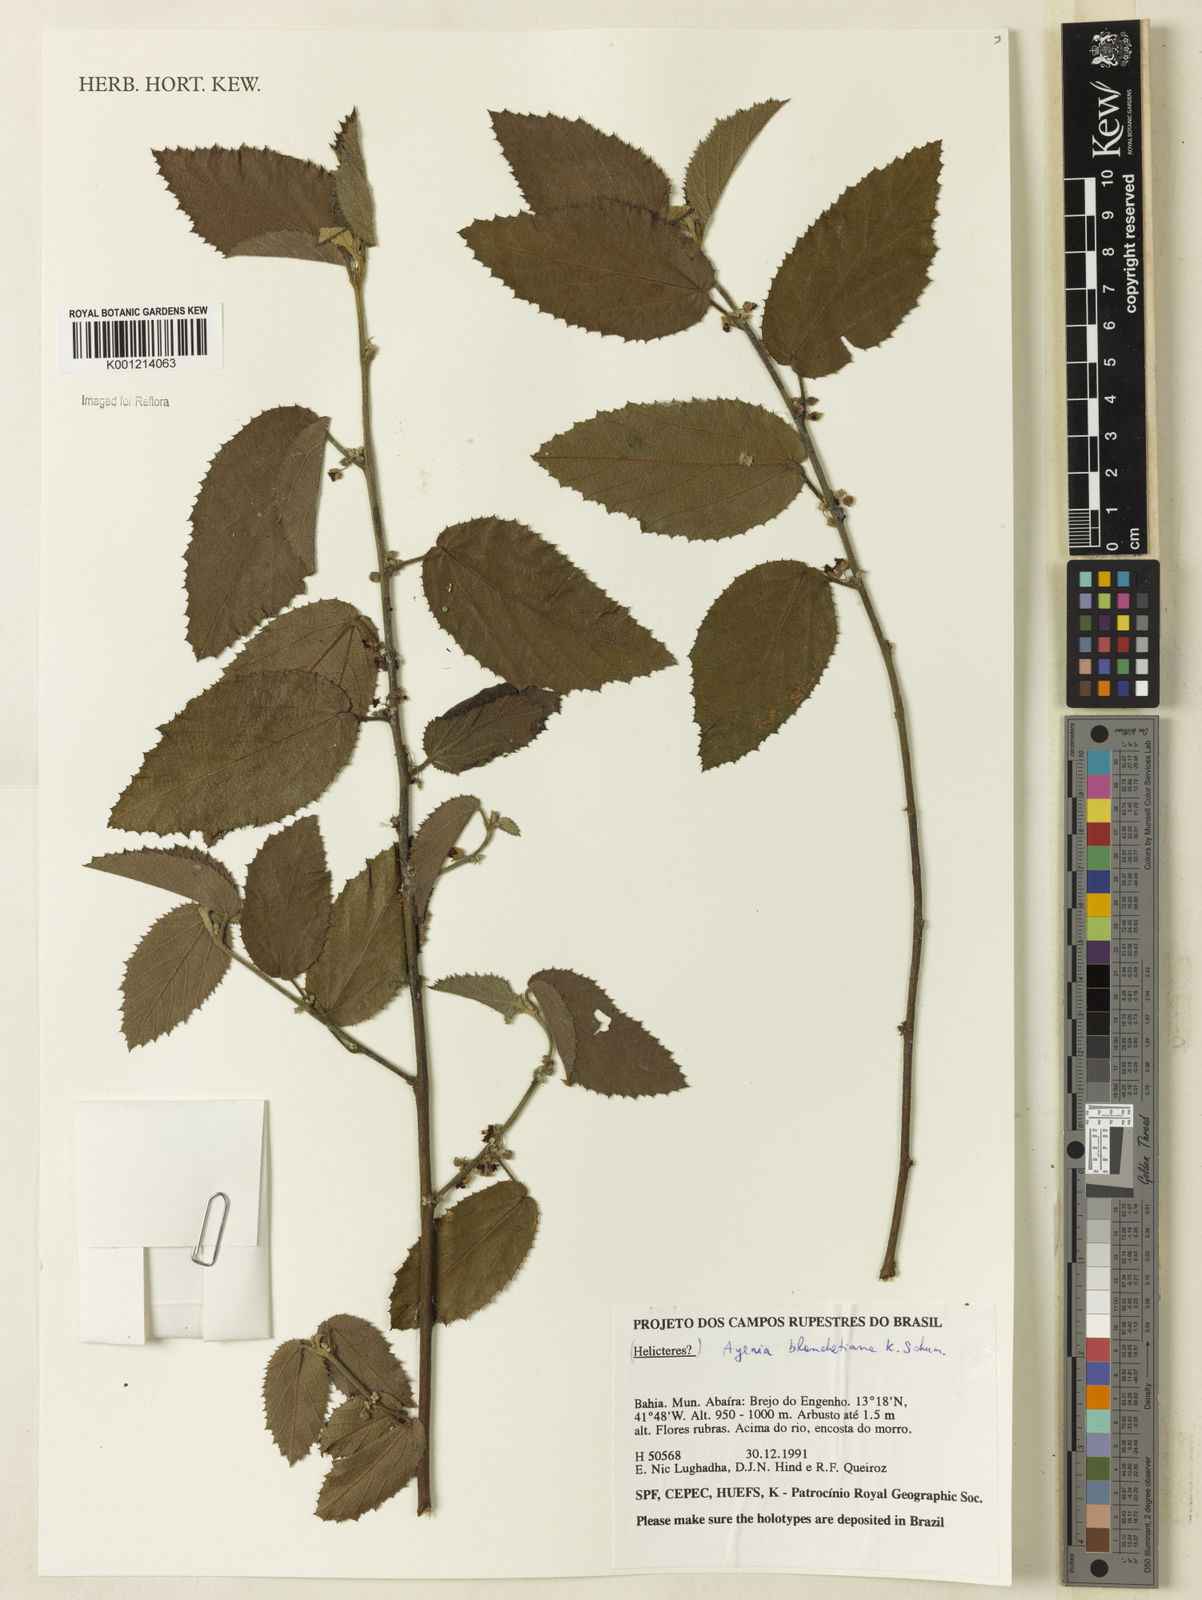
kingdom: Plantae
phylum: Tracheophyta
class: Magnoliopsida
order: Malvales
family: Malvaceae
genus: Ayenia
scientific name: Ayenia blanchetiana
